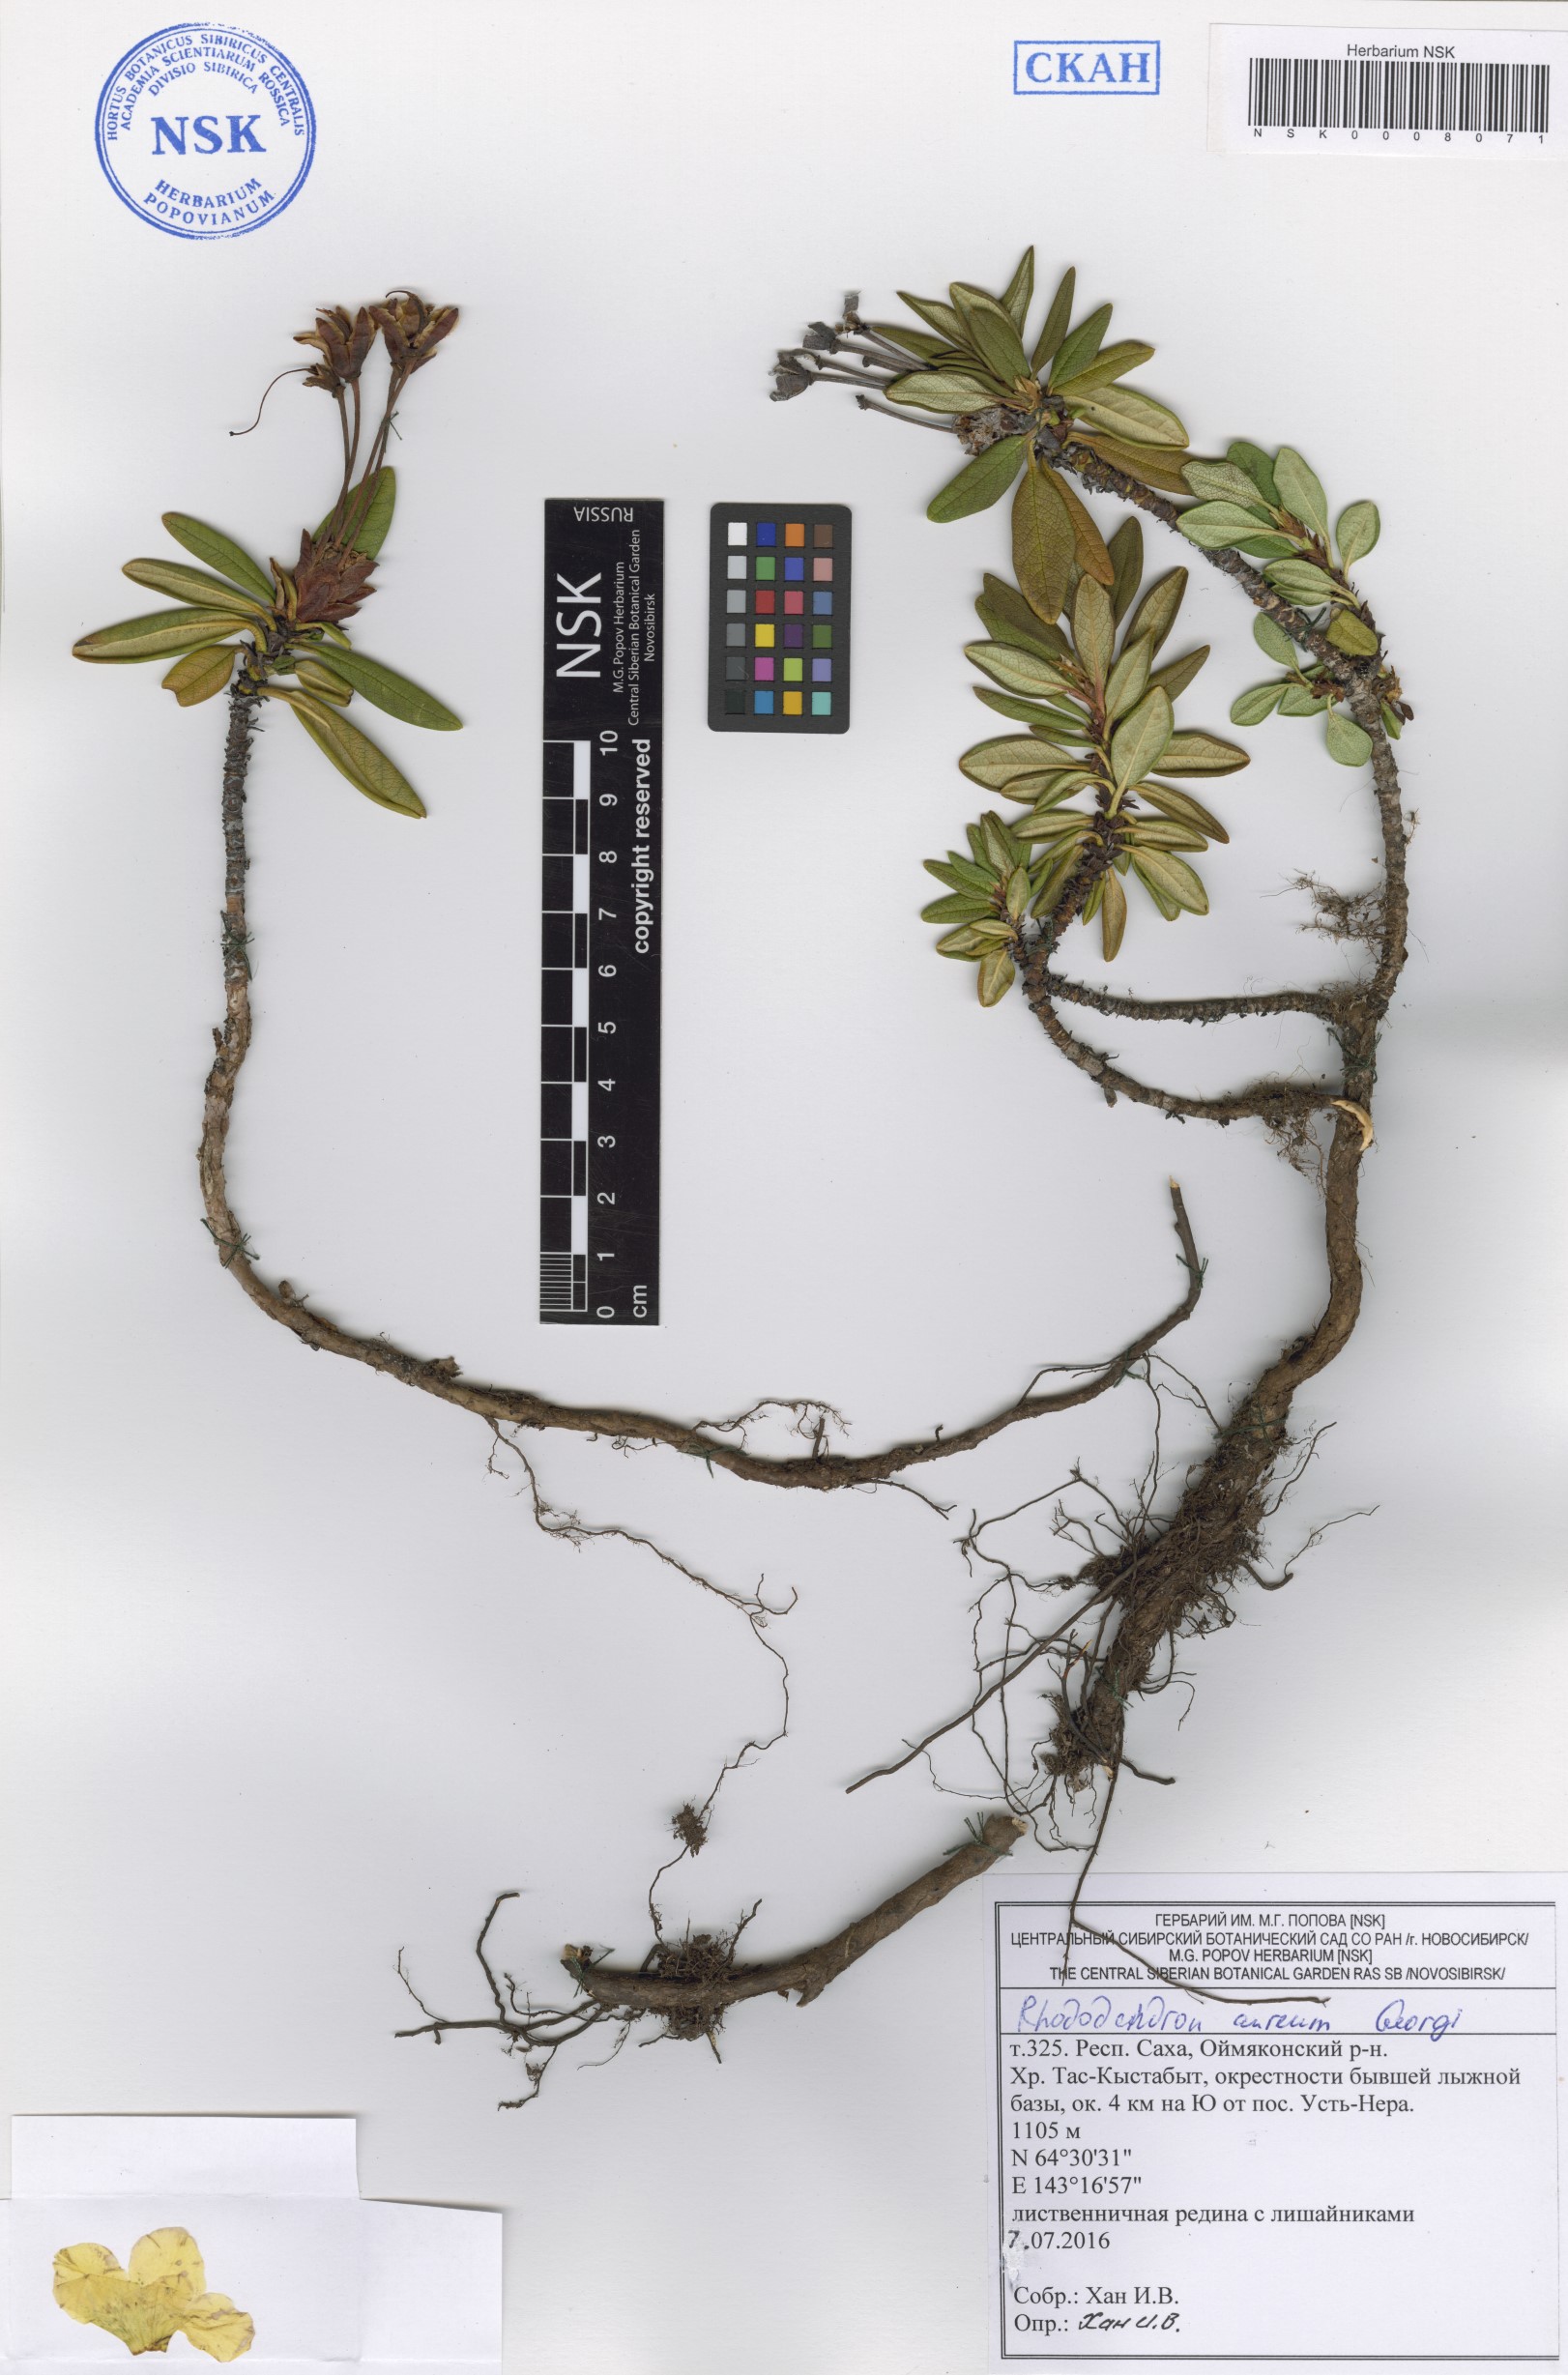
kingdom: Plantae
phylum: Tracheophyta
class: Magnoliopsida
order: Ericales
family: Ericaceae
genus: Rhododendron
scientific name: Rhododendron aureum
